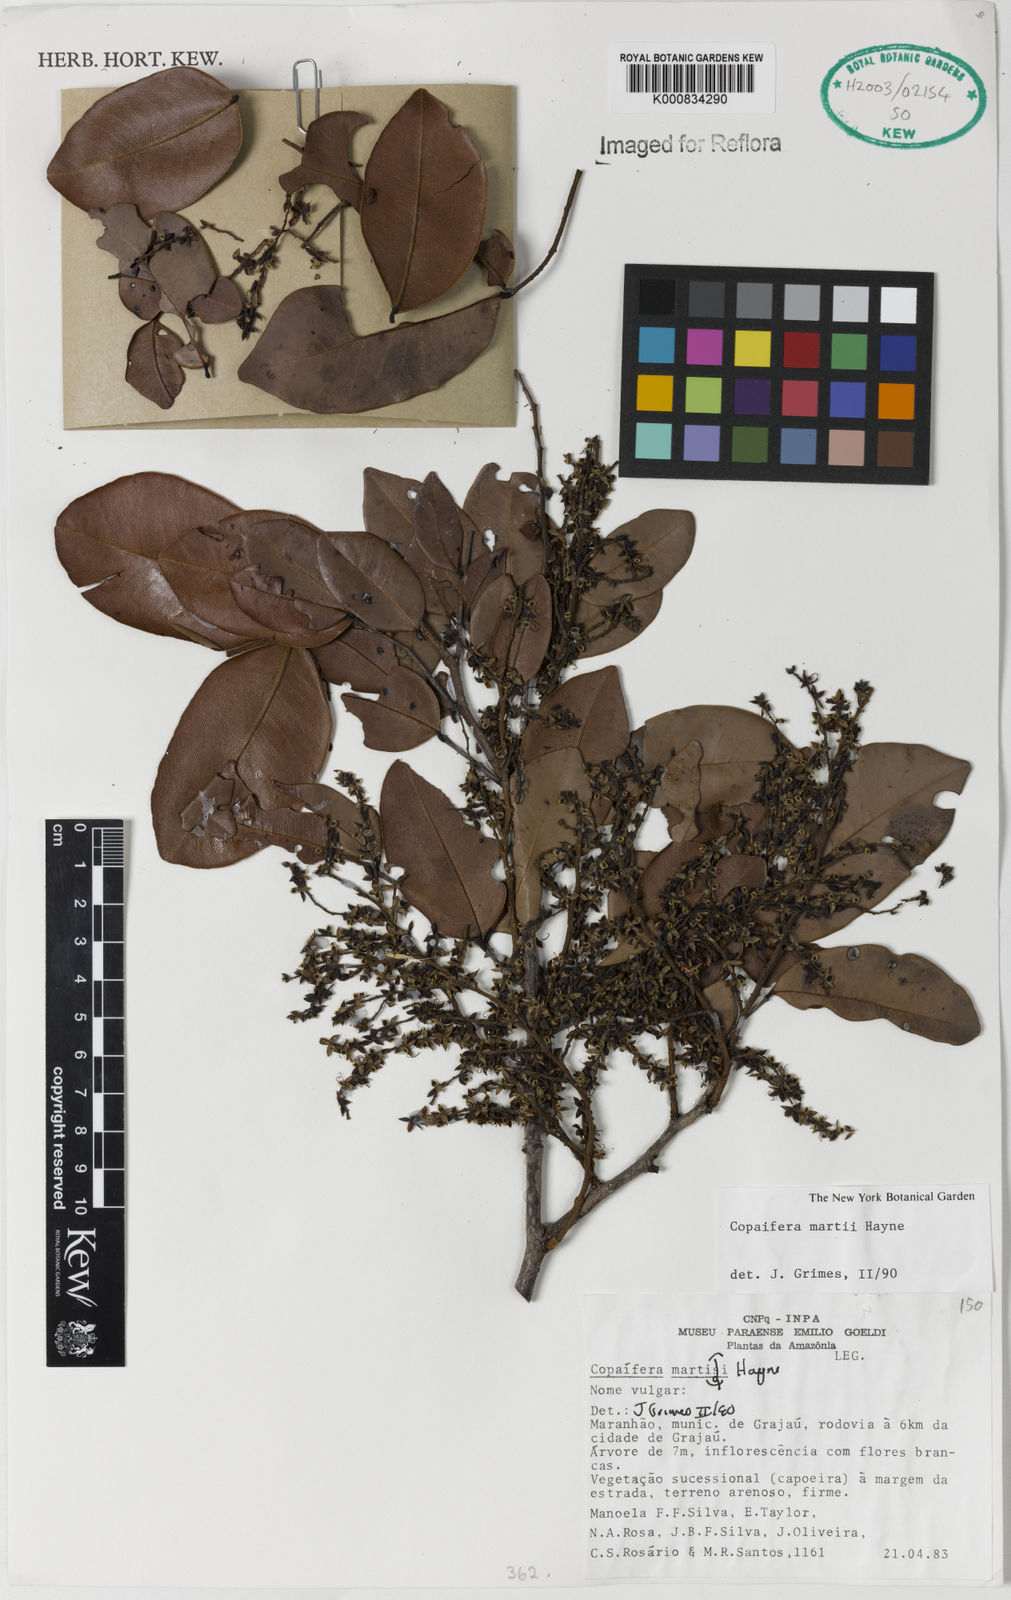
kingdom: Plantae
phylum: Tracheophyta
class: Magnoliopsida
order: Fabales
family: Fabaceae
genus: Copaifera
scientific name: Copaifera martii
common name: Copaiba
